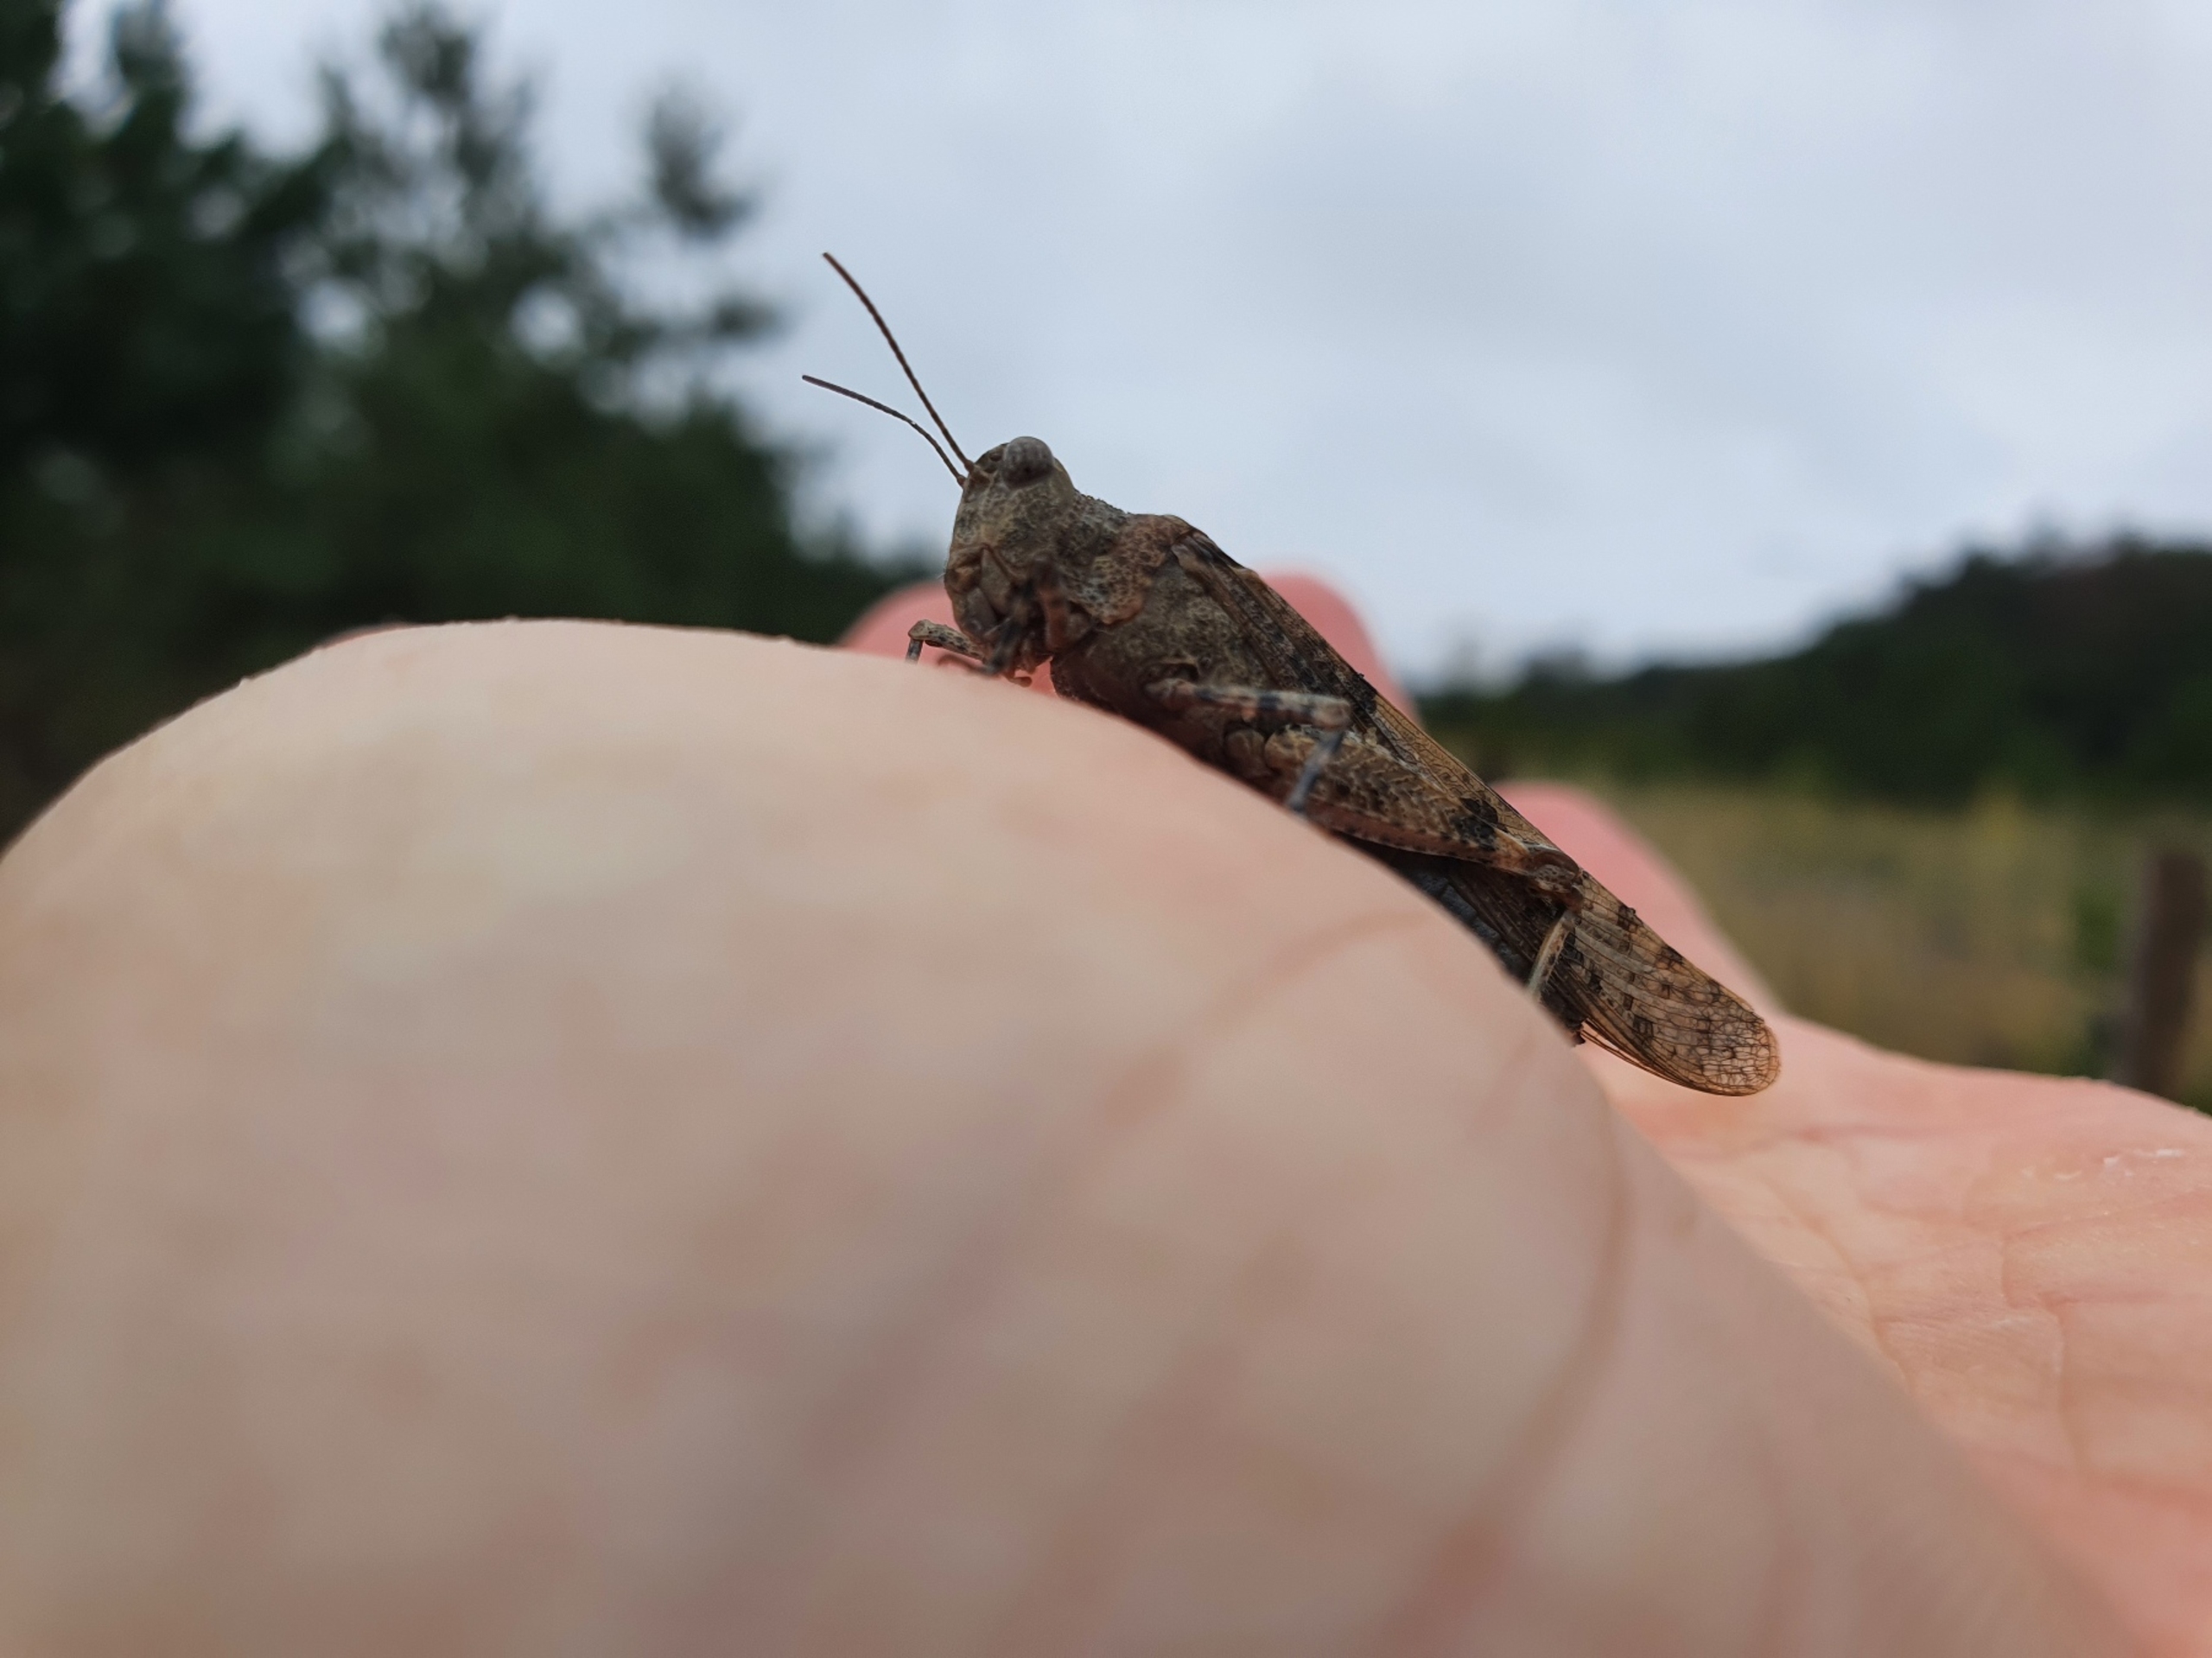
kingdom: Animalia
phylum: Arthropoda
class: Insecta
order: Orthoptera
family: Acrididae
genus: Sphingonotus
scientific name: Sphingonotus caerulans
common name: Blåvinget steppegræshoppe
